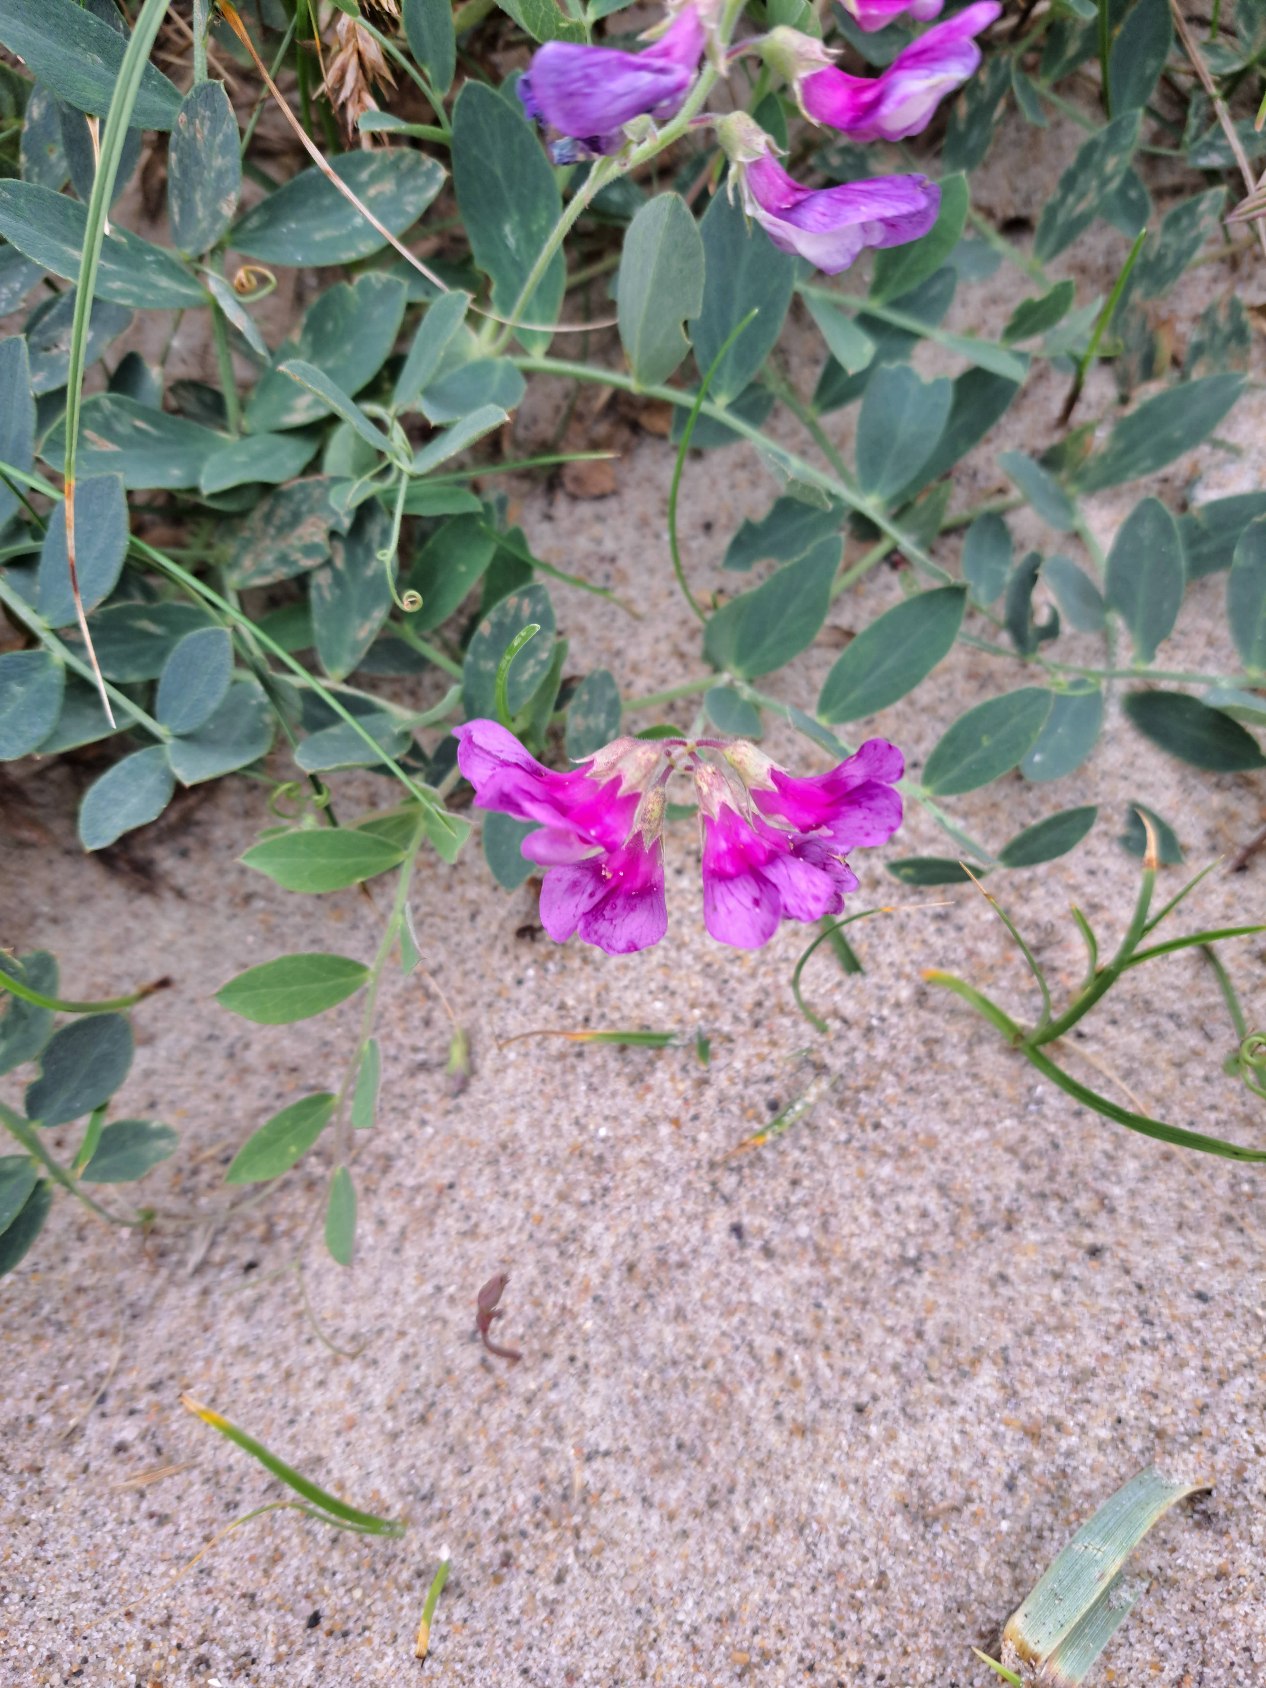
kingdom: Plantae
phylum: Tracheophyta
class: Magnoliopsida
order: Fabales
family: Fabaceae
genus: Lathyrus
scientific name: Lathyrus japonicus
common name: Strand-fladbælg
